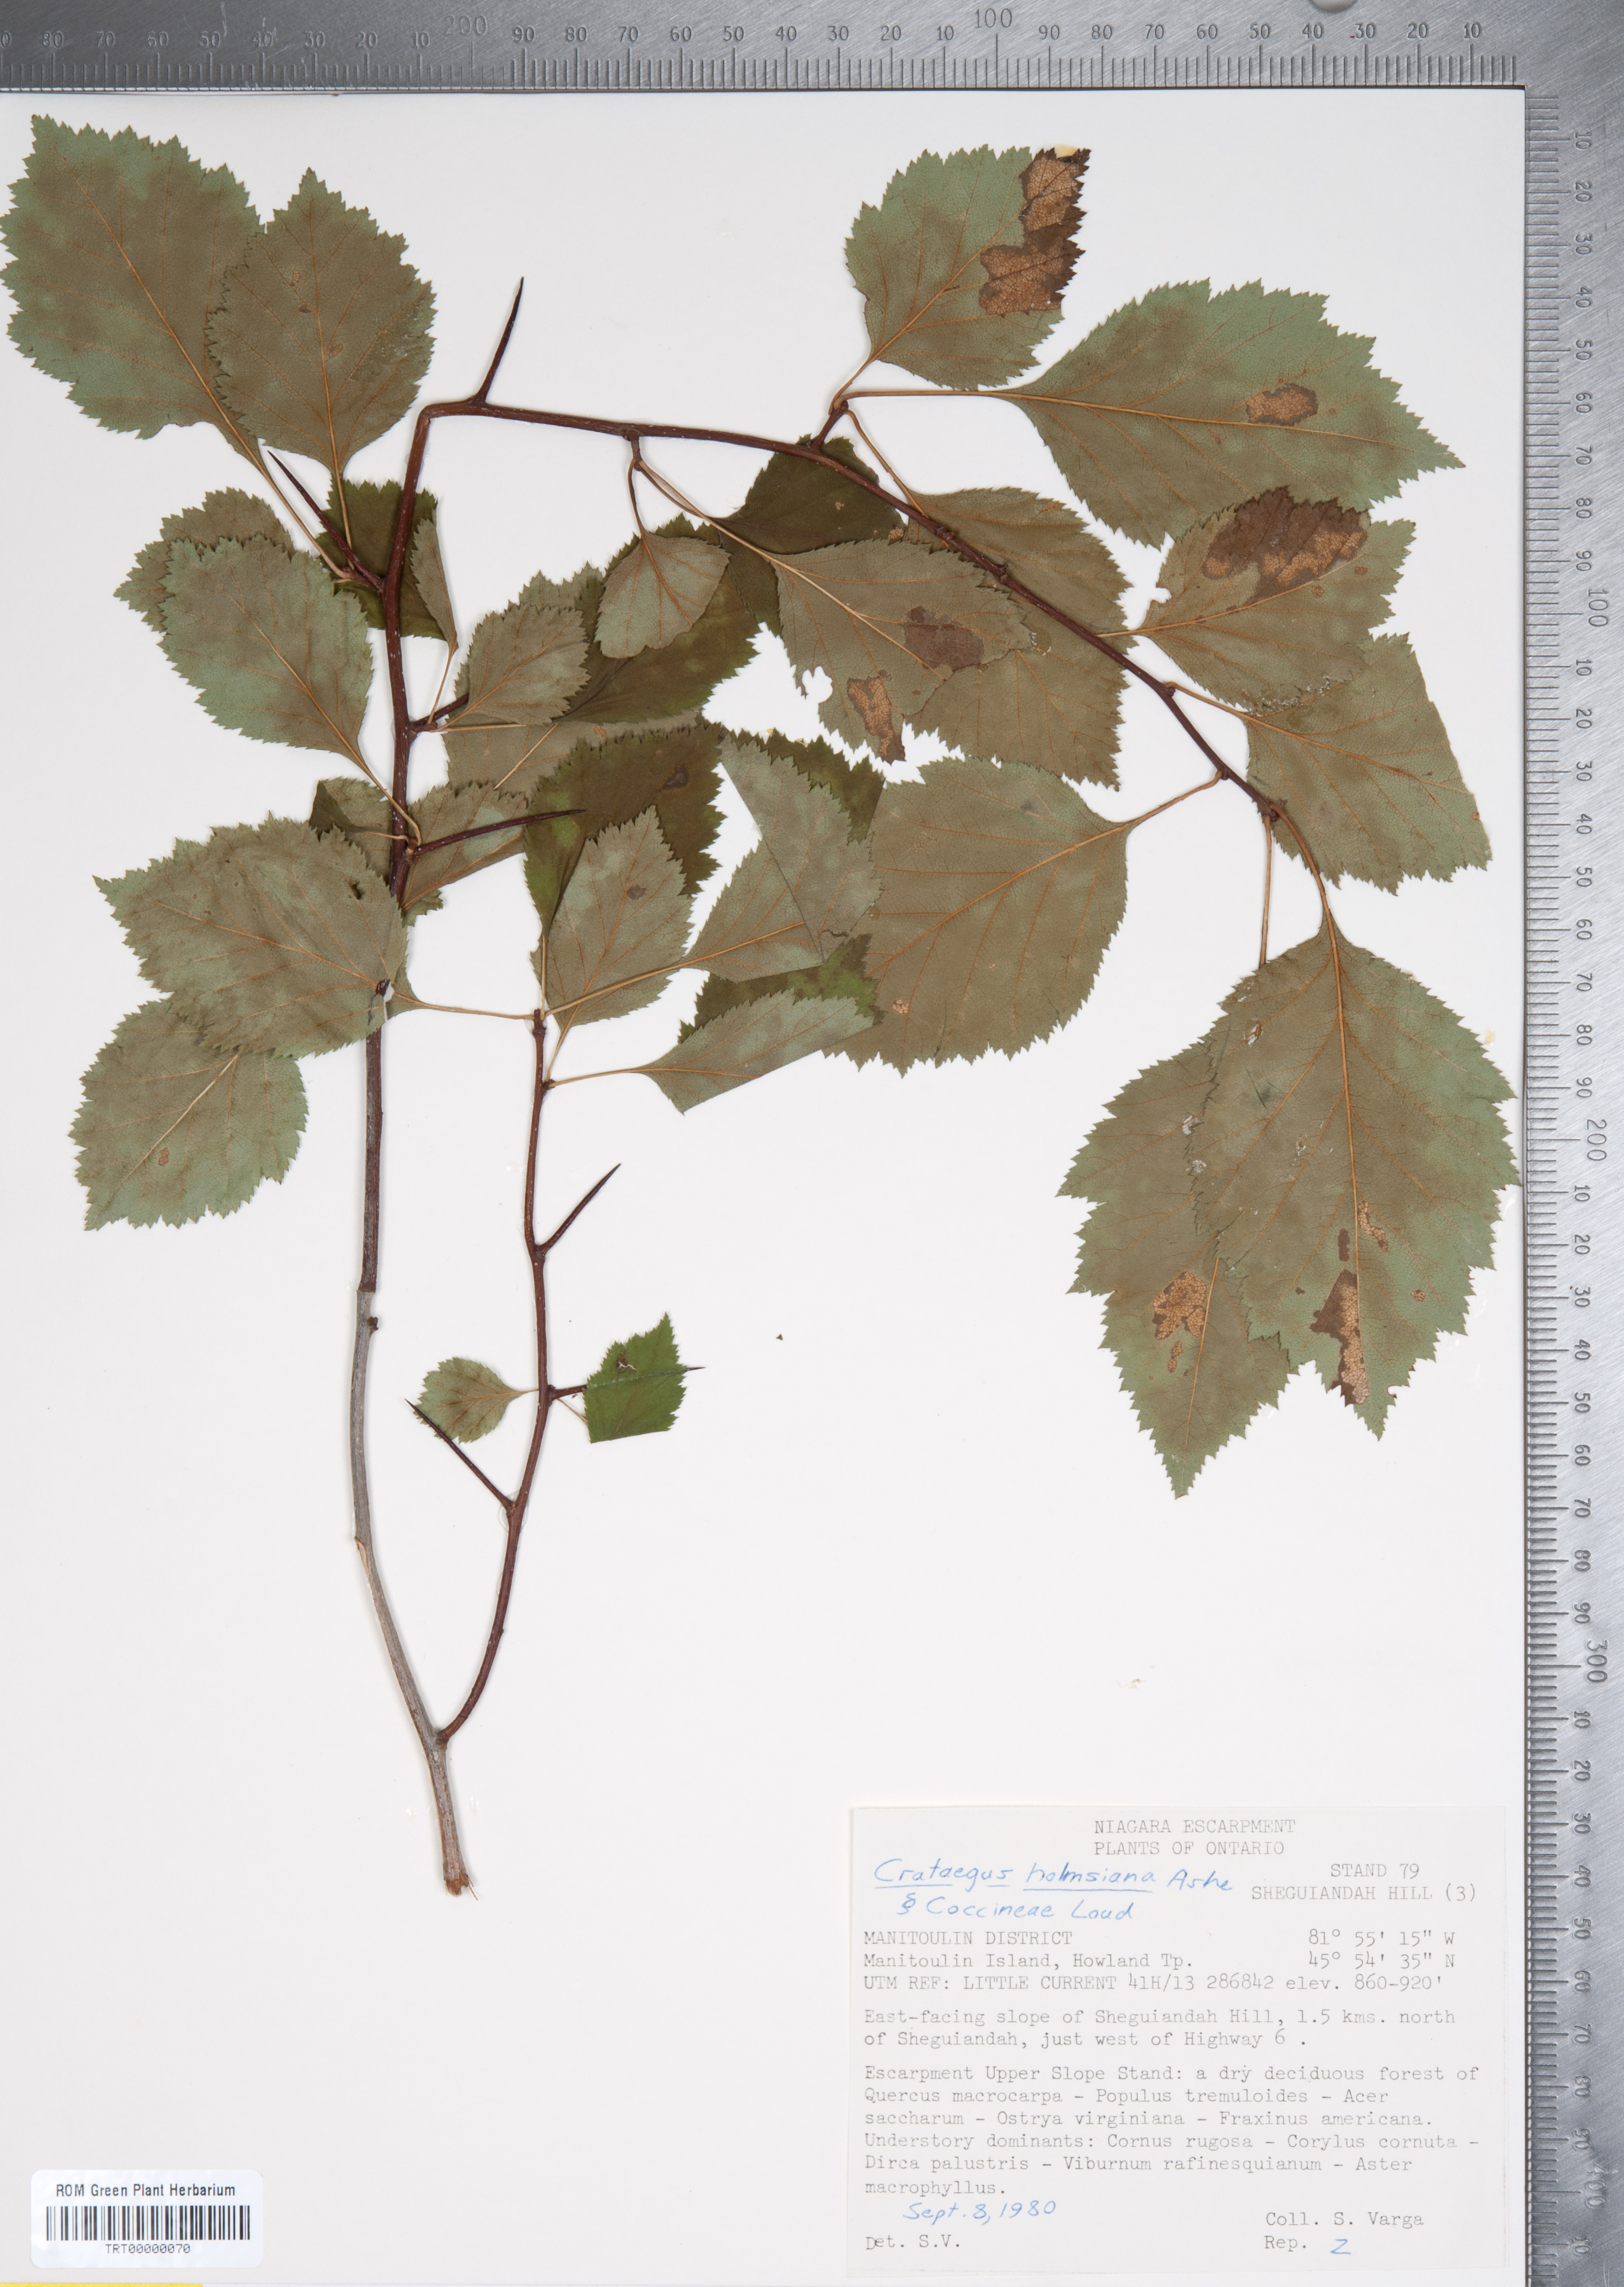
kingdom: Plantae
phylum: Tracheophyta
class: Magnoliopsida
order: Rosales
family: Rosaceae
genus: Crataegus
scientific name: Crataegus holmesiana
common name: Holmes' hawthorn
